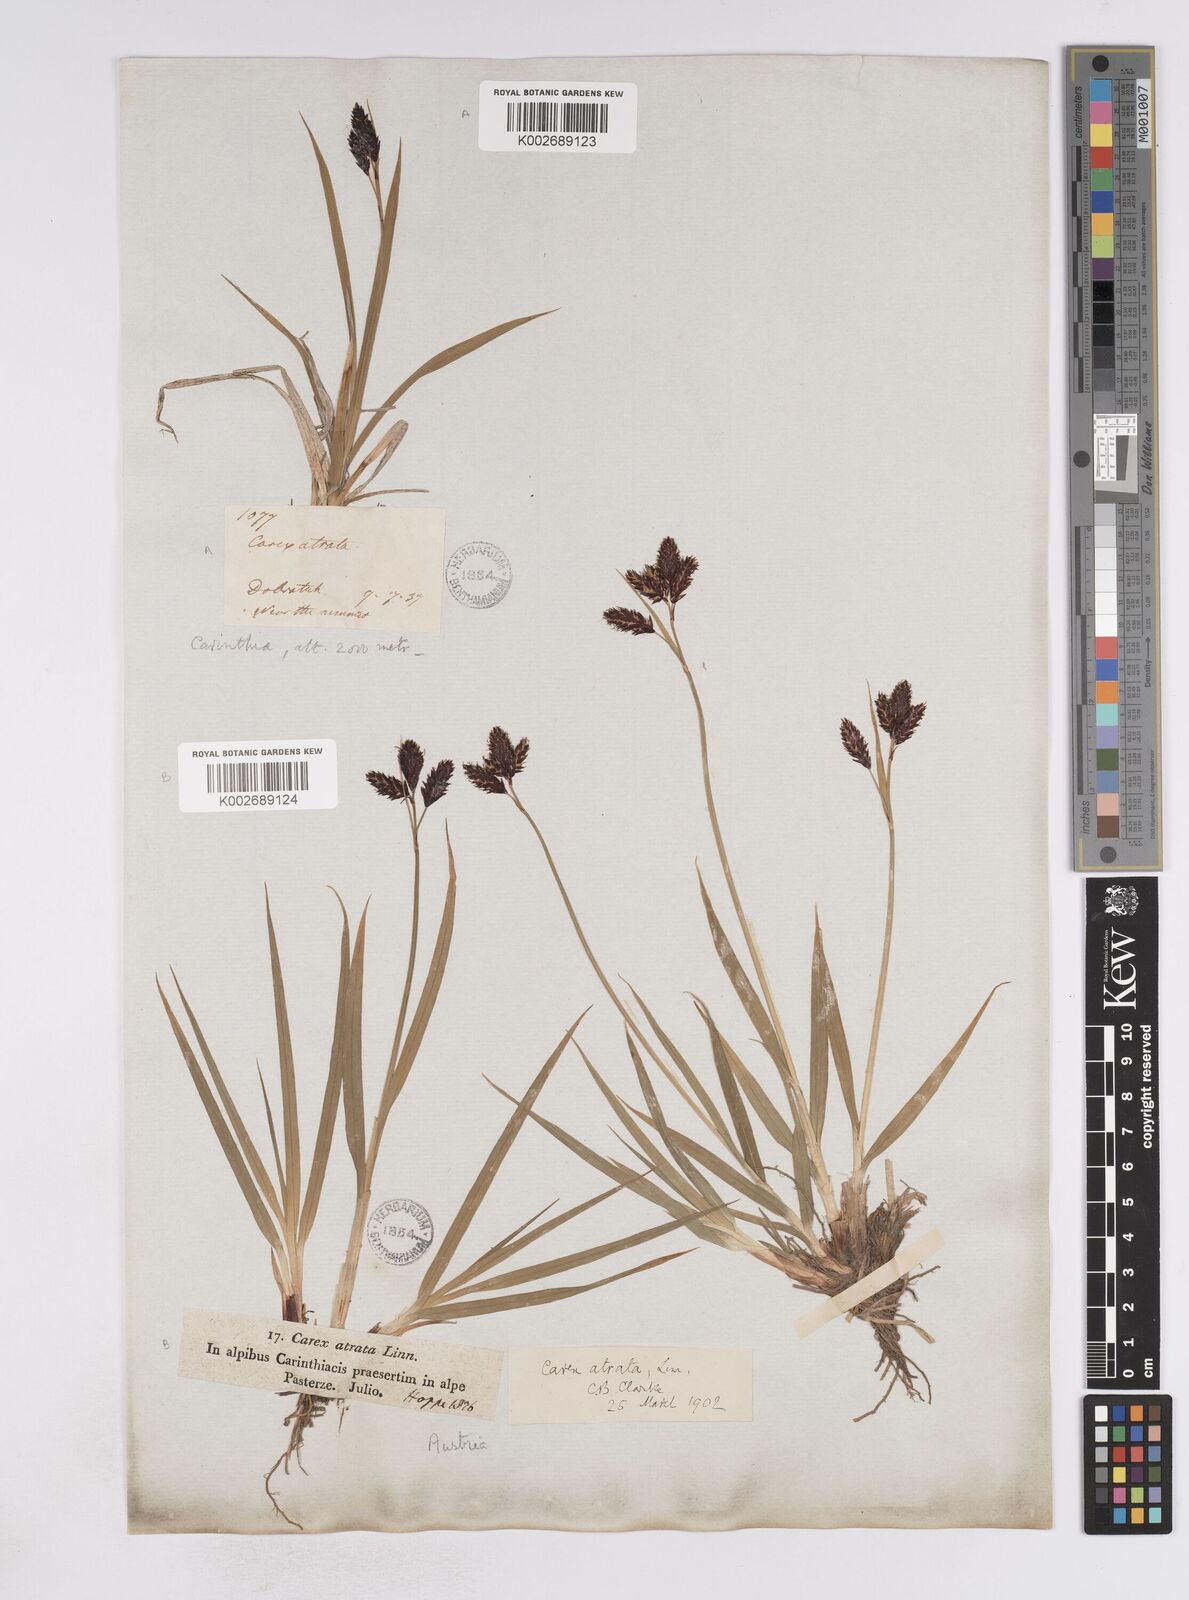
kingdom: Plantae
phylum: Tracheophyta
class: Liliopsida
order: Poales
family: Cyperaceae
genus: Carex
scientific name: Carex aterrima
